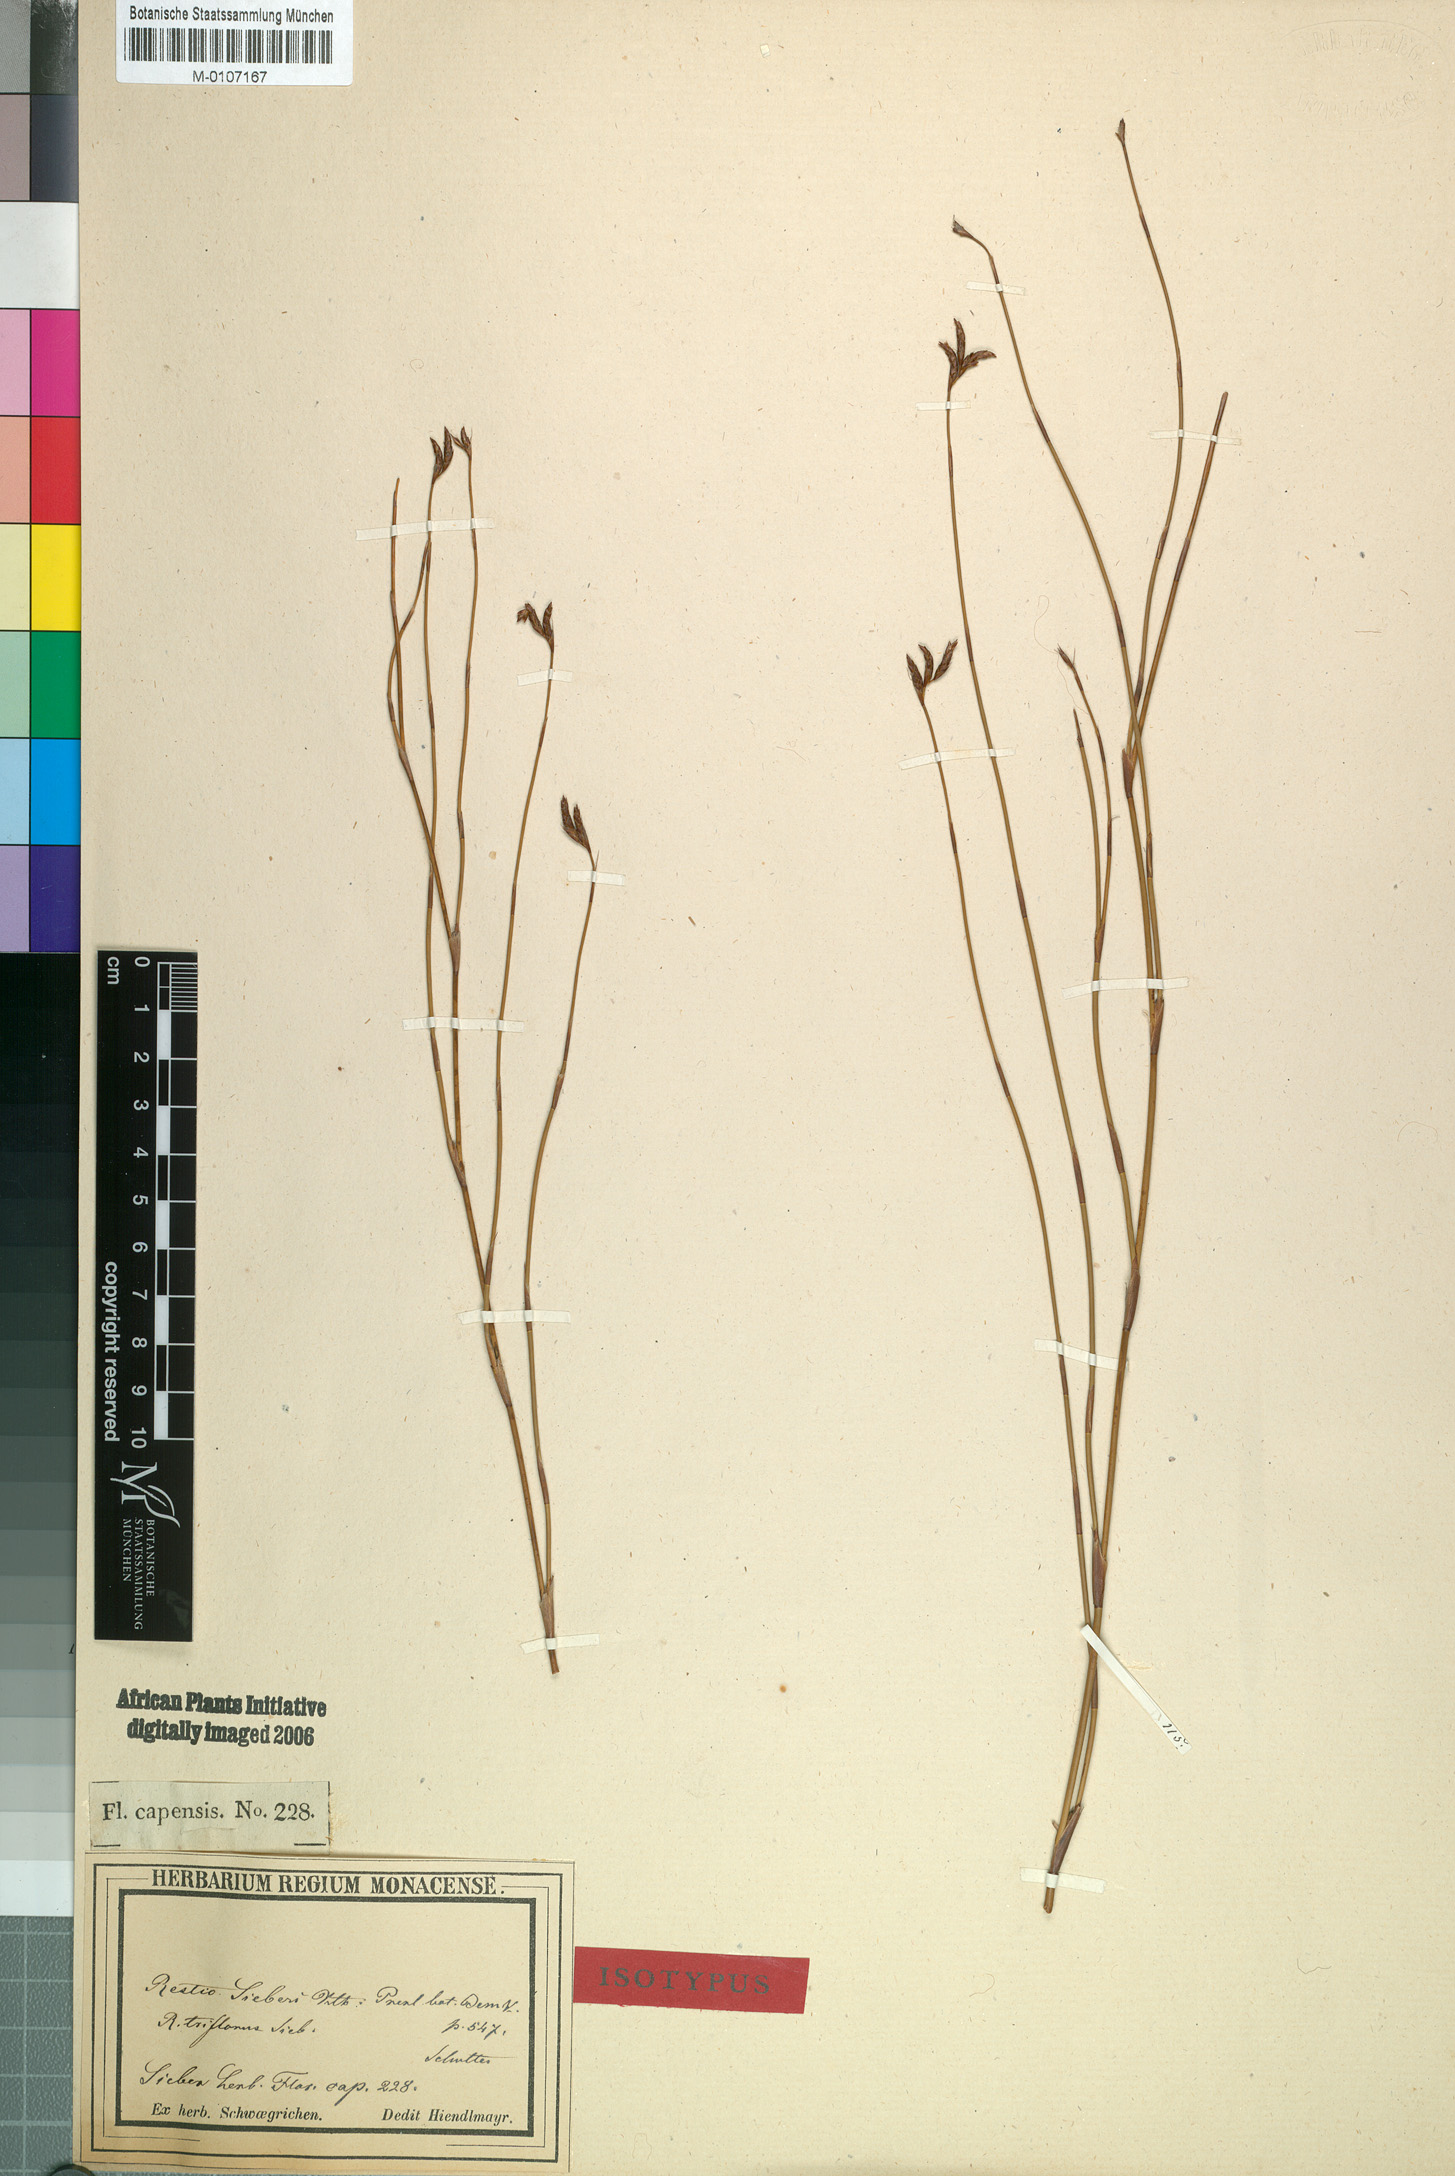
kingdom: Plantae
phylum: Tracheophyta
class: Liliopsida
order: Poales
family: Restionaceae
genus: Restio
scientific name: Restio sieberi
